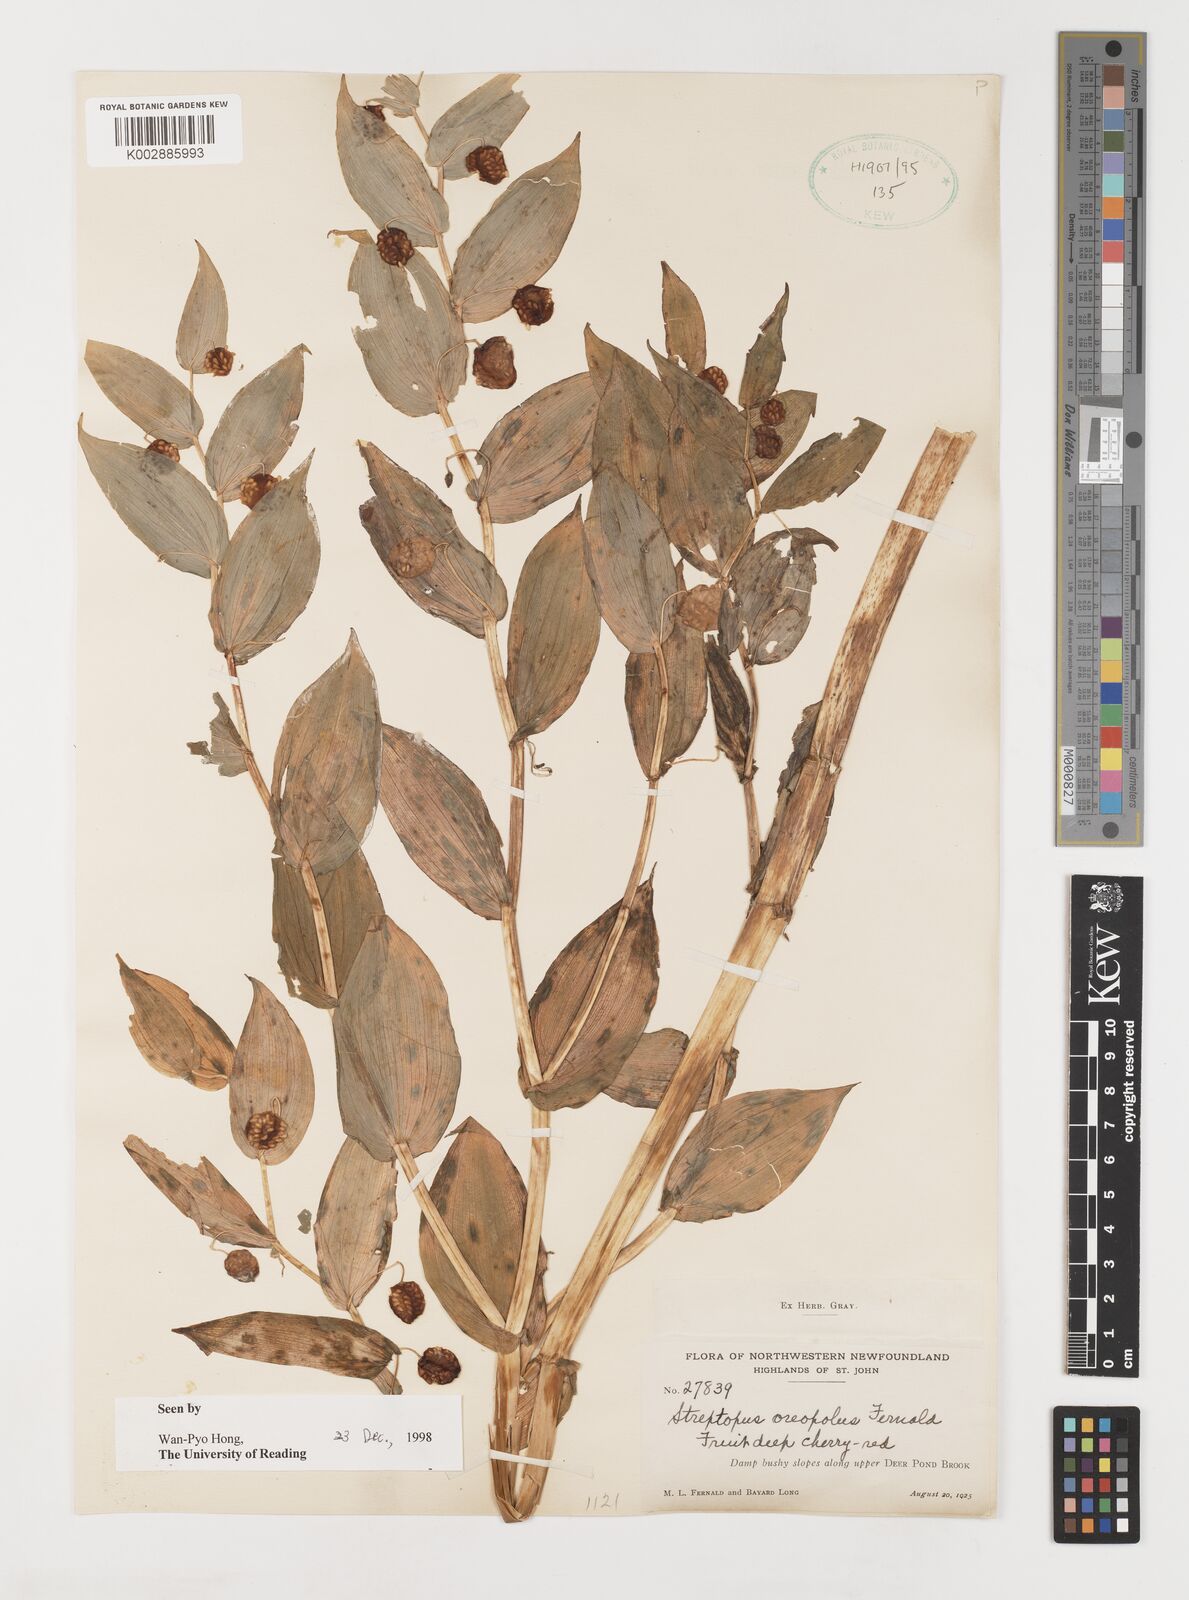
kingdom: Plantae
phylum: Tracheophyta
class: Liliopsida
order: Liliales
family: Liliaceae
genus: Streptopus
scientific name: Streptopus oreopolus
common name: Hybrid twisted-stalk
